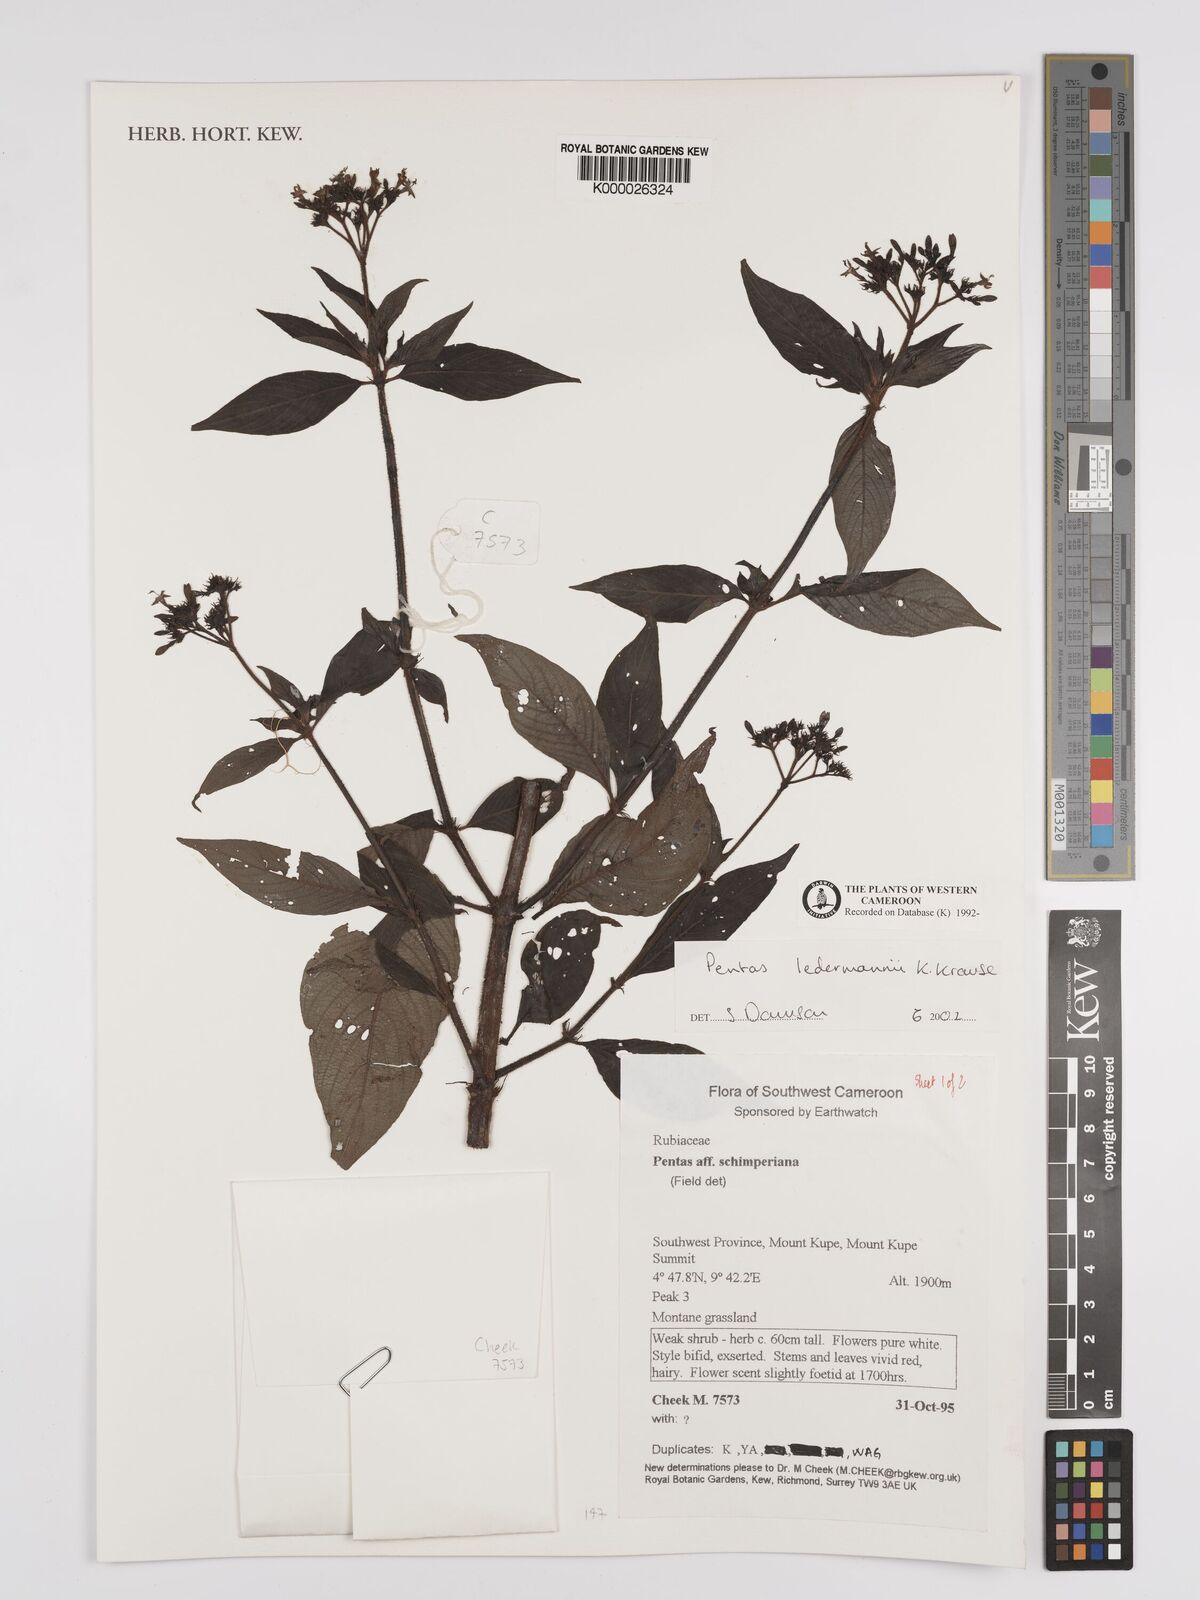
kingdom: Plantae
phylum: Tracheophyta
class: Magnoliopsida
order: Gentianales
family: Rubiaceae
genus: Phyllopentas
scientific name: Phyllopentas ledermannii
